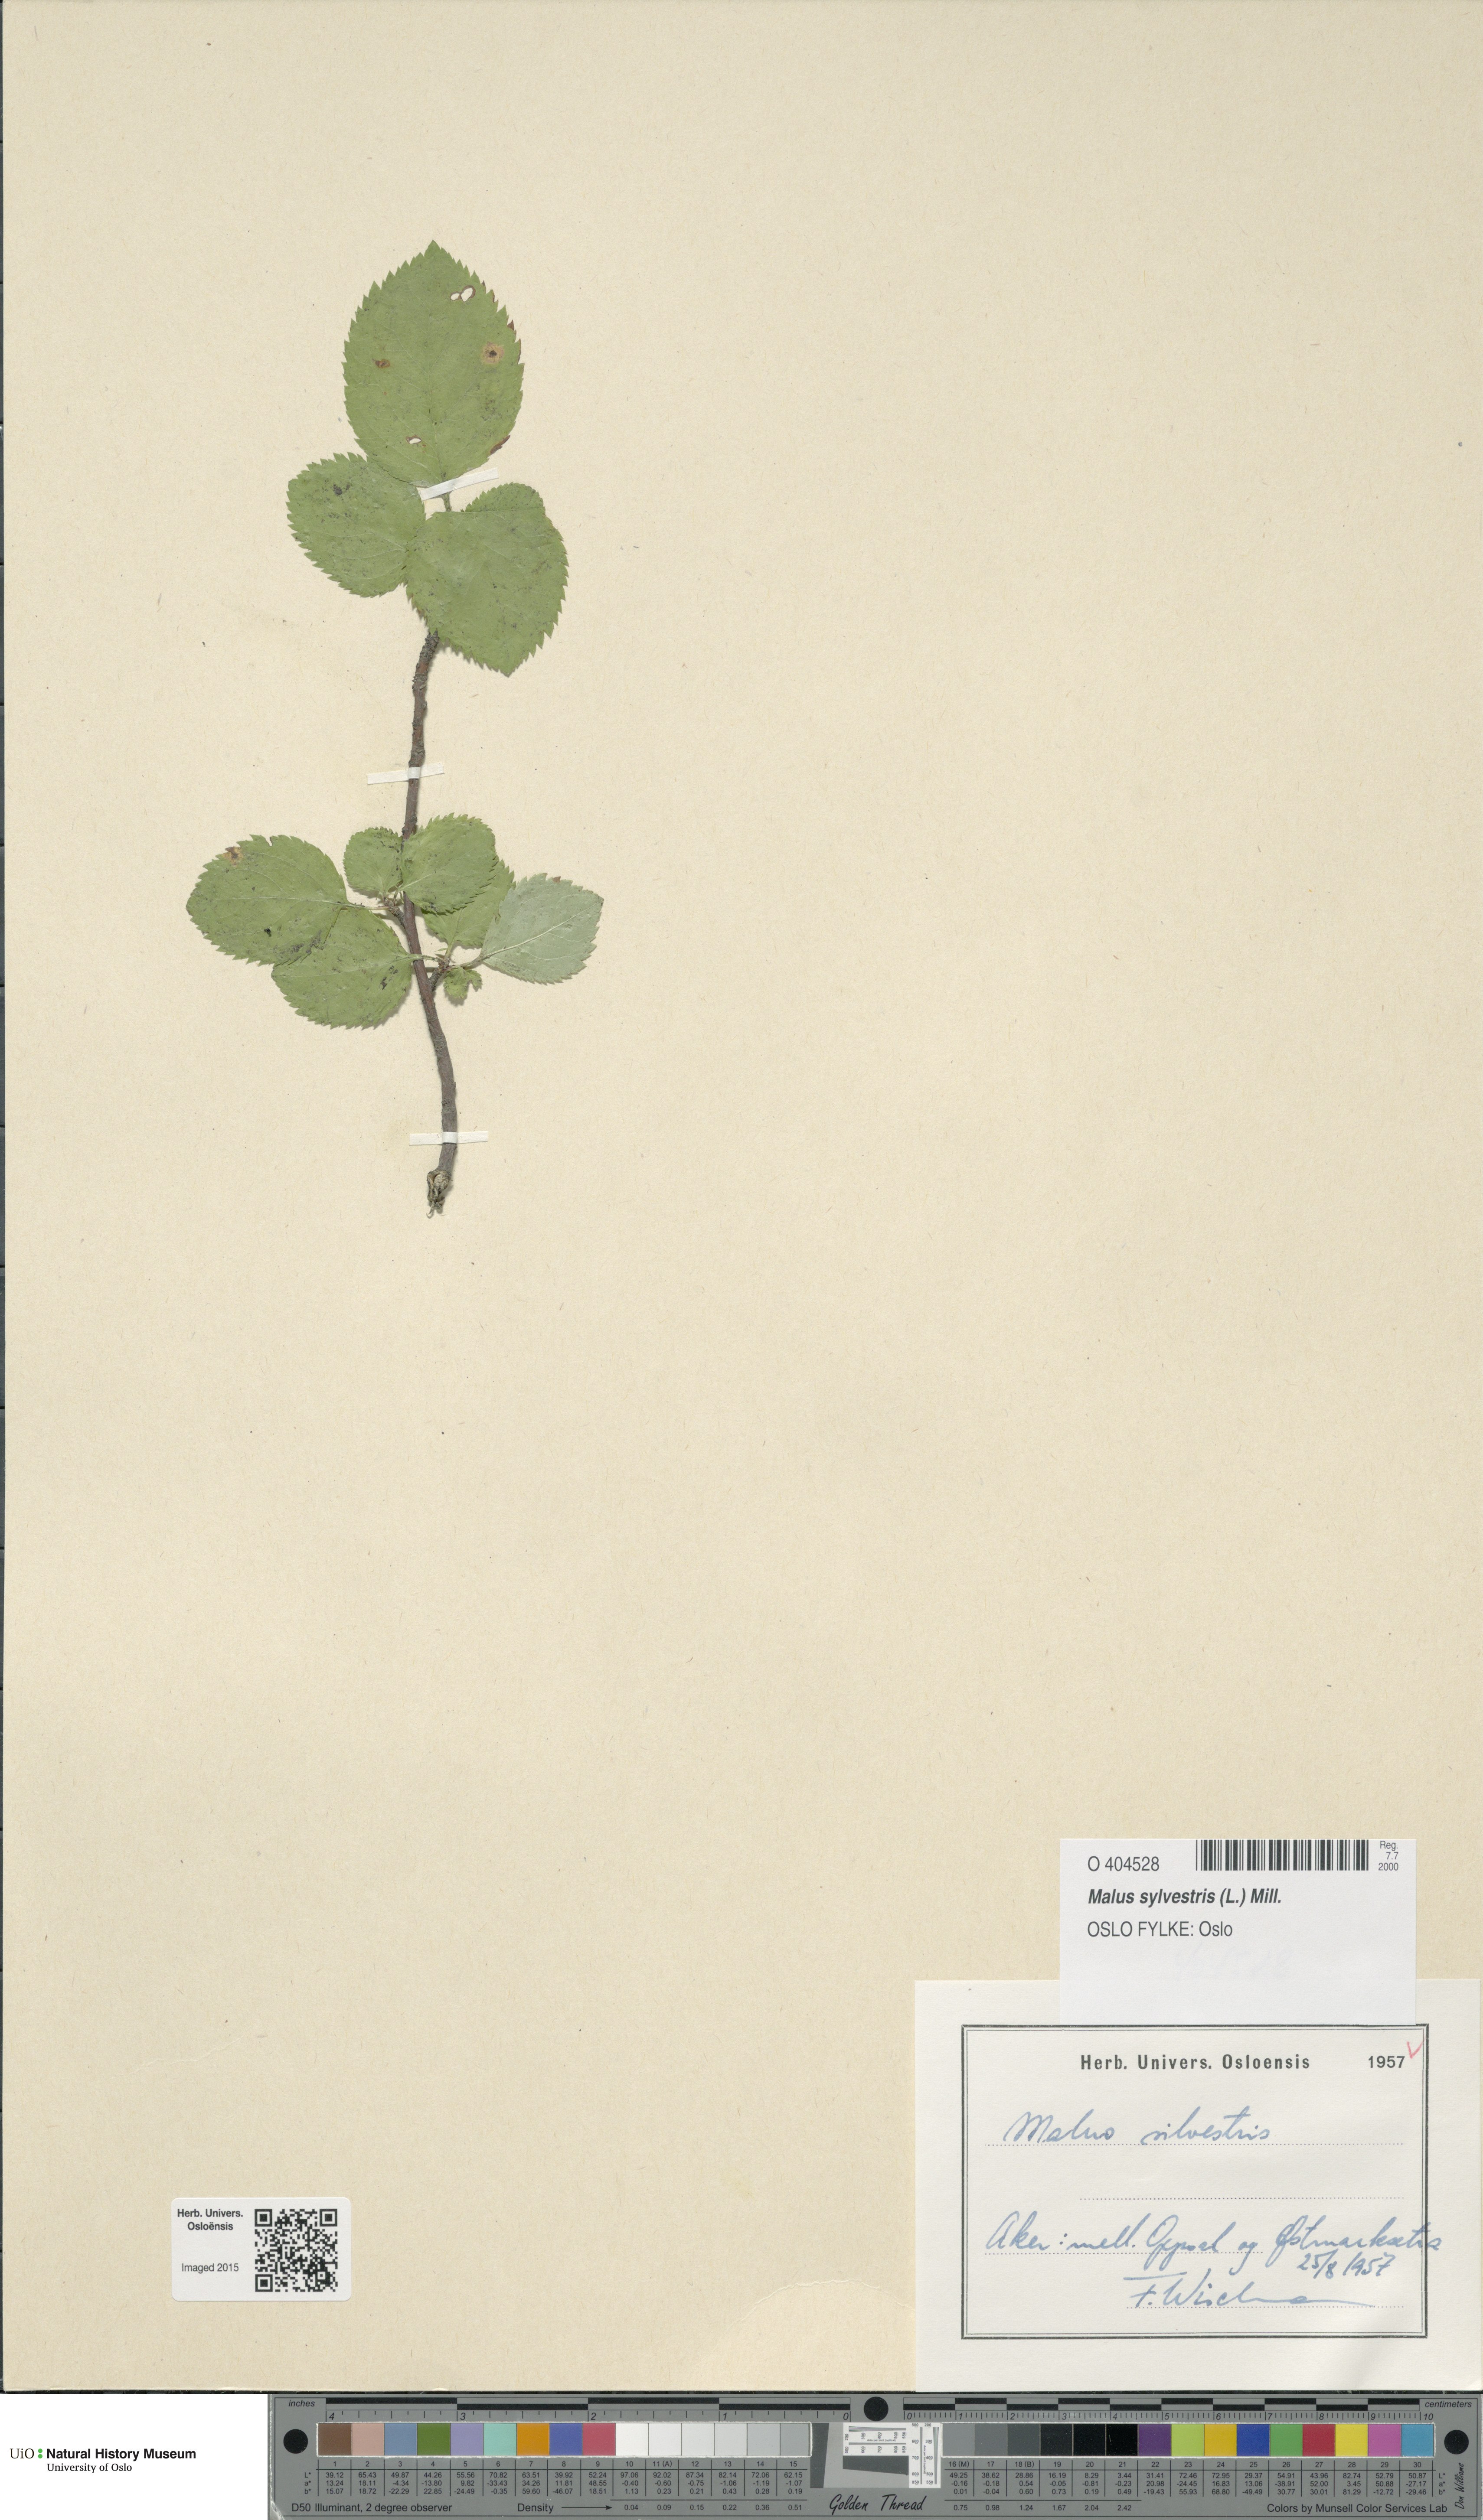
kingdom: Plantae
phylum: Tracheophyta
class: Magnoliopsida
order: Rosales
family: Rosaceae
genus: Malus
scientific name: Malus sylvestris
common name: Crab apple
